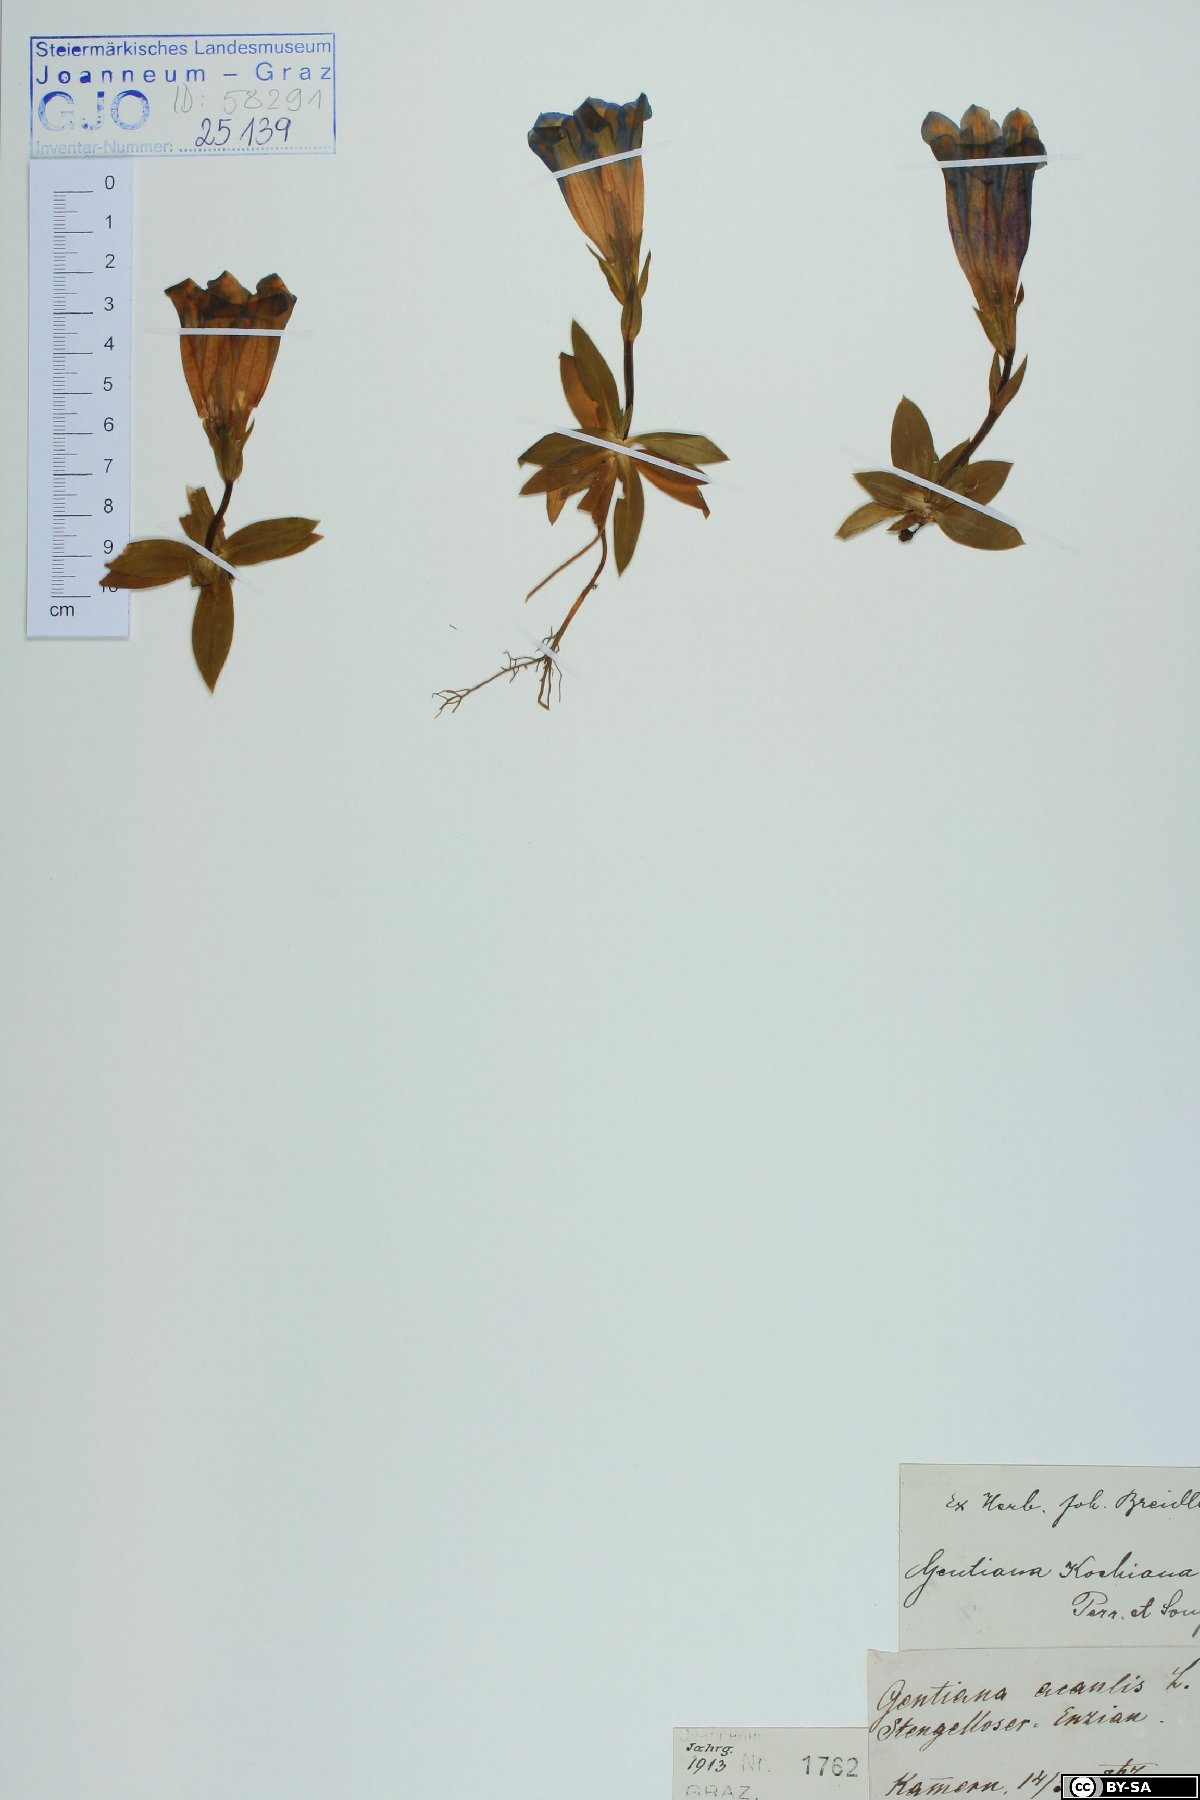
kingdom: Plantae
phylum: Tracheophyta
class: Magnoliopsida
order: Gentianales
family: Gentianaceae
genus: Gentiana
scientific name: Gentiana acaulis
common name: Trumpet gentian
